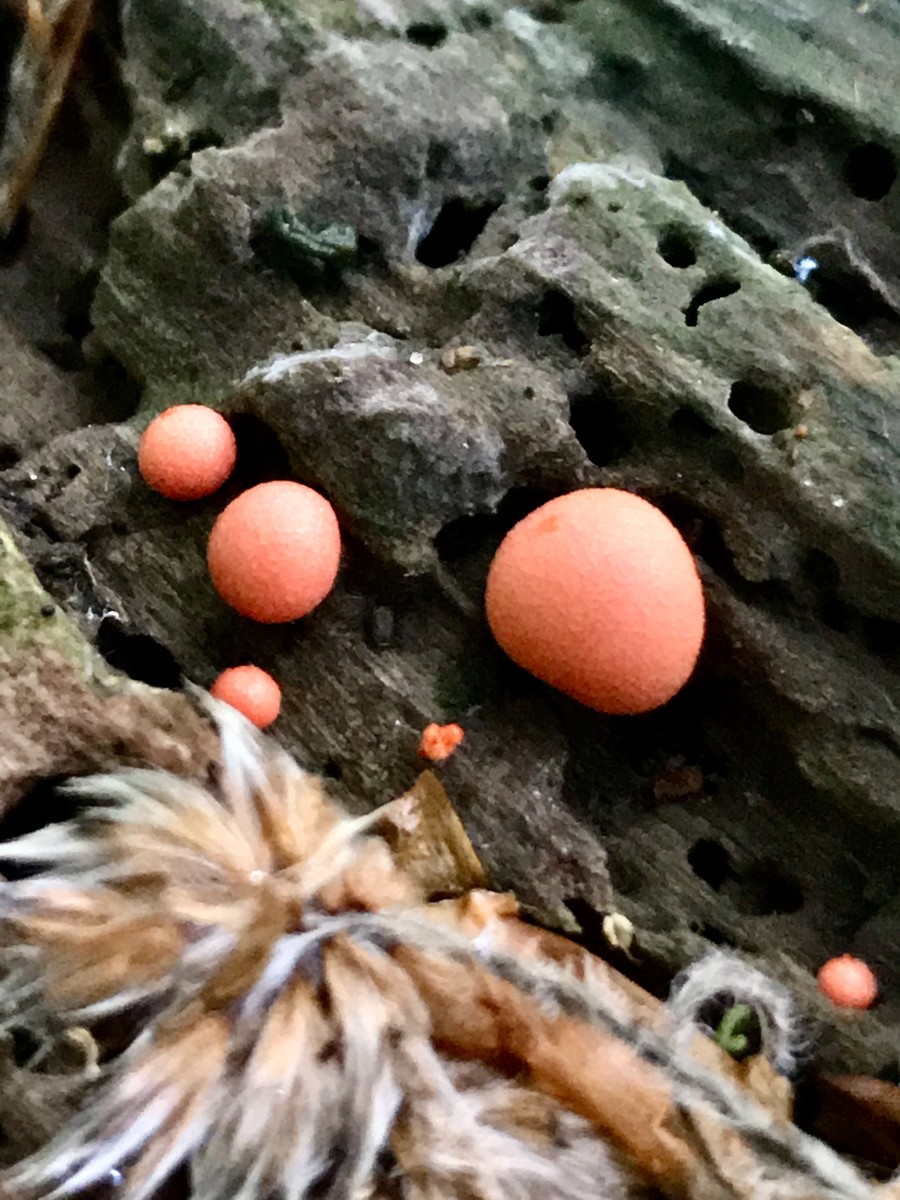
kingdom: Protozoa
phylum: Mycetozoa
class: Myxomycetes
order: Cribrariales
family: Tubiferaceae
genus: Lycogala
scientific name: Lycogala epidendrum
